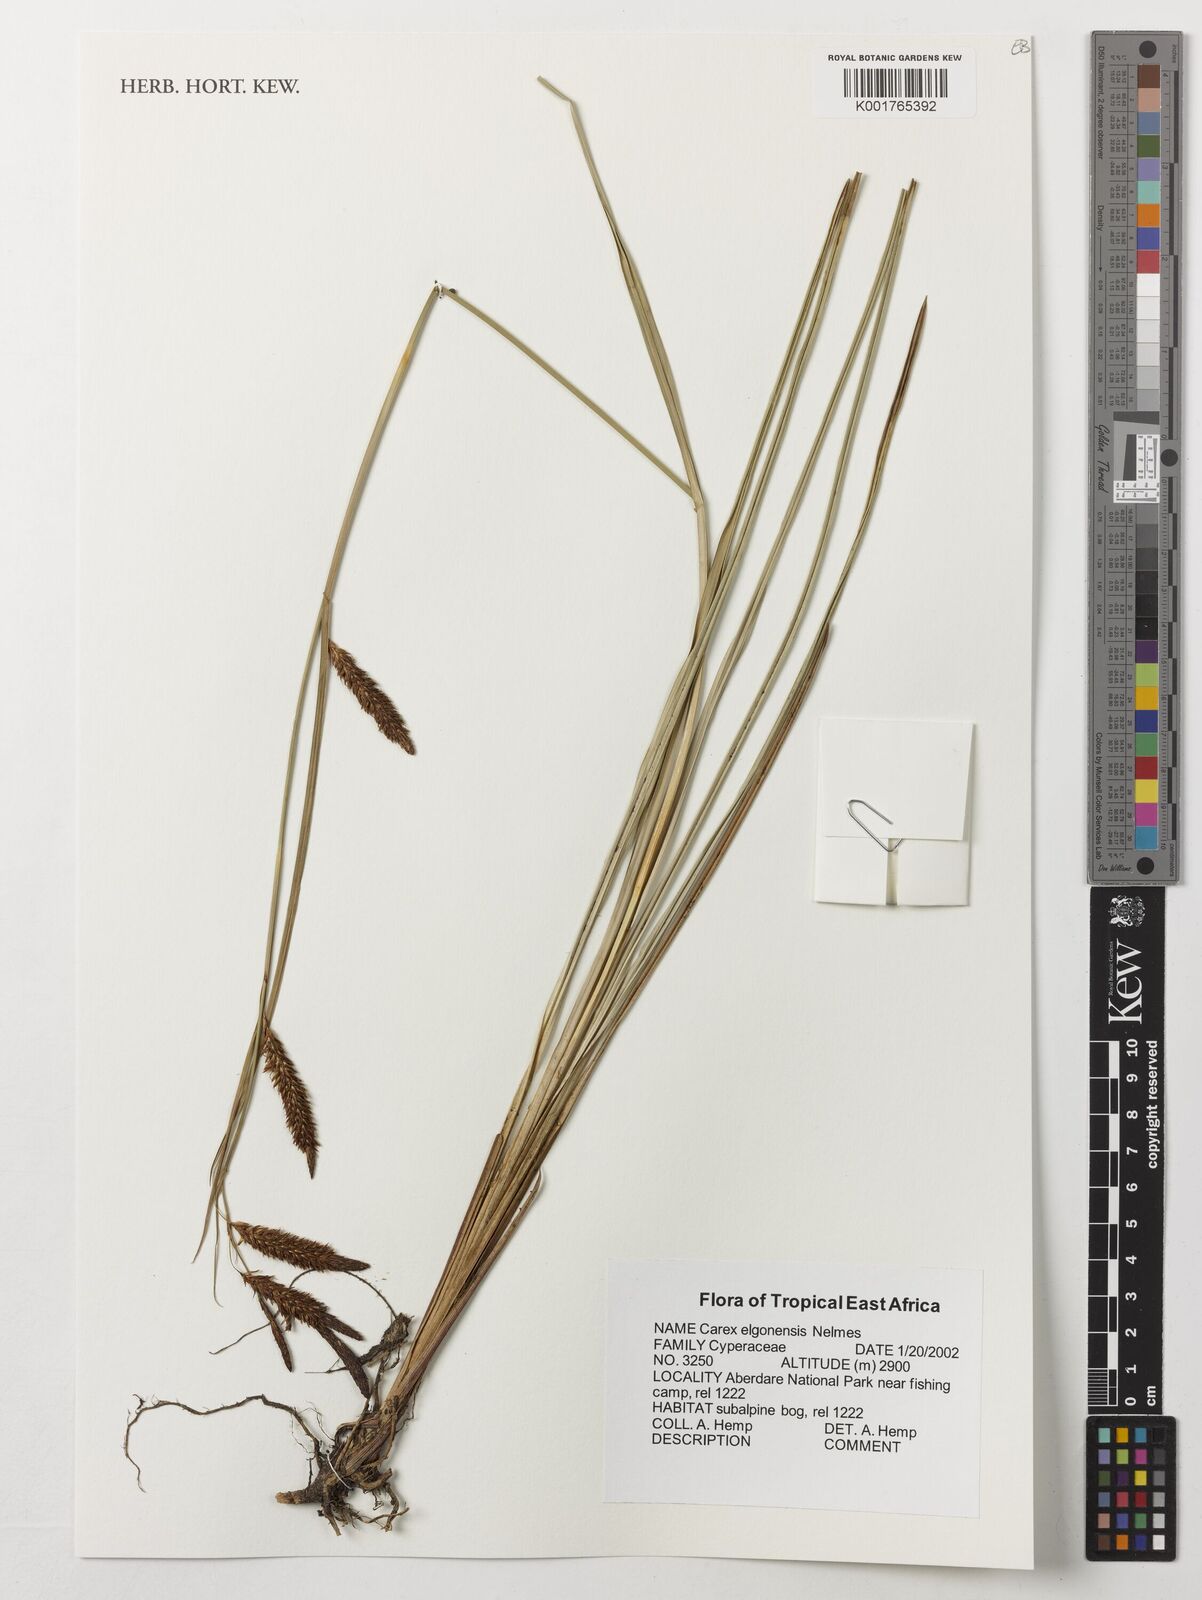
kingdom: Plantae
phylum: Tracheophyta
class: Liliopsida
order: Poales
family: Cyperaceae
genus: Carex
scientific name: Carex elgonensis
